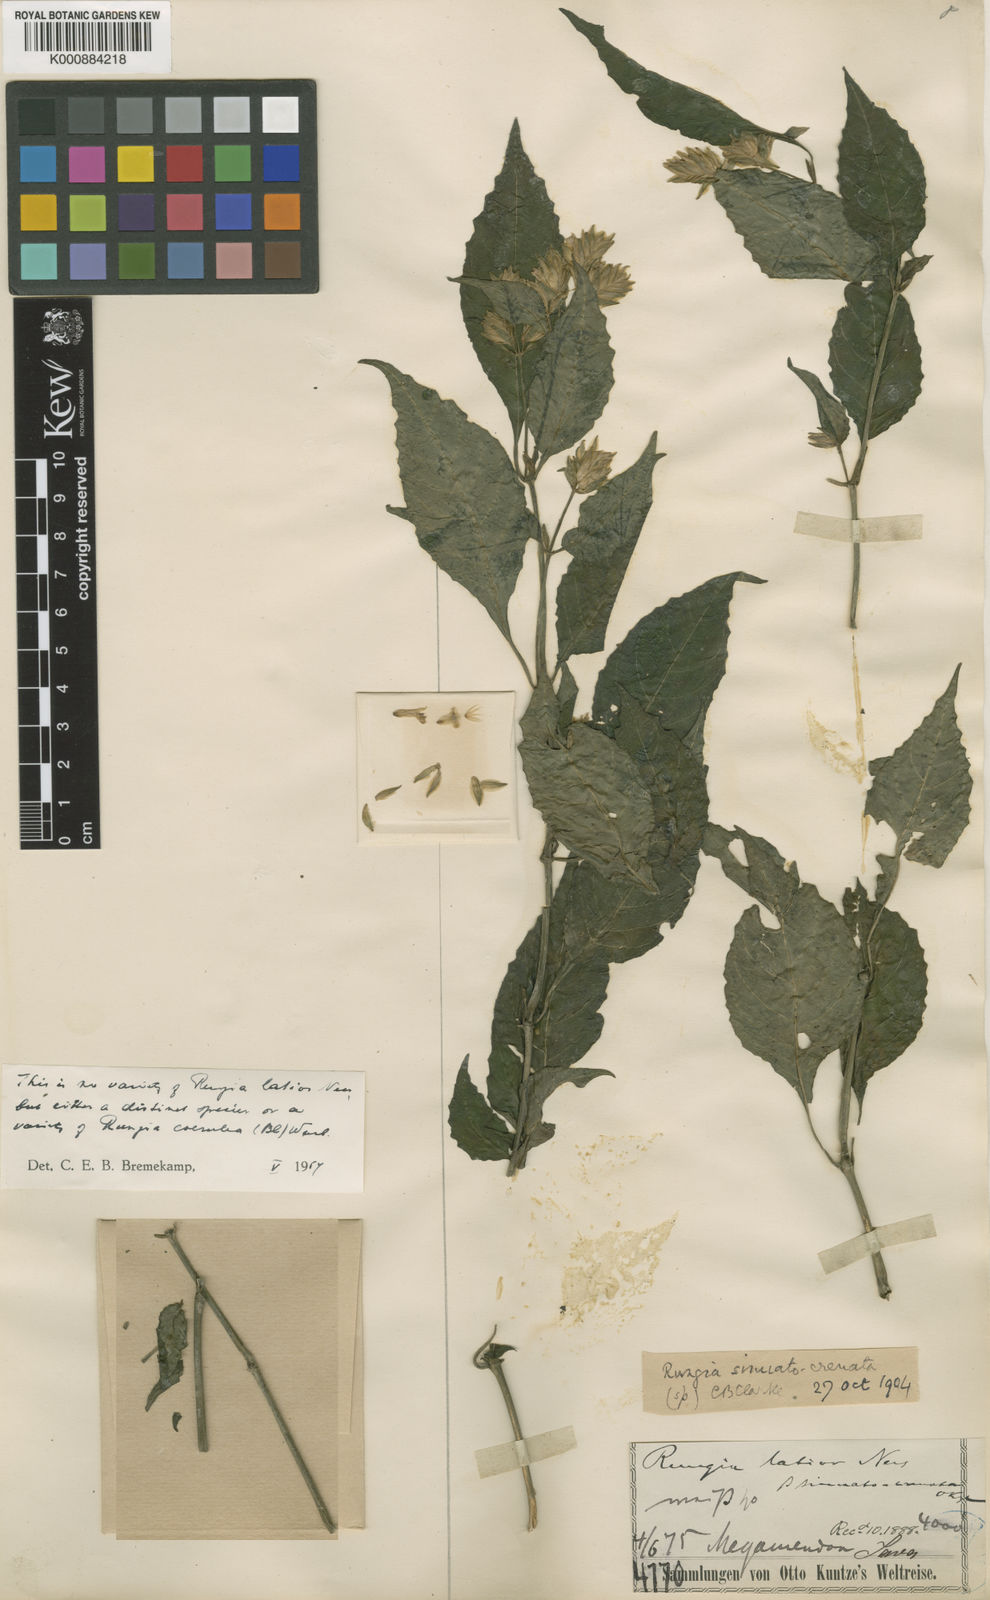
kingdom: Plantae
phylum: Tracheophyta
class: Magnoliopsida
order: Lamiales
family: Acanthaceae
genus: Justicia
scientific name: Justicia
